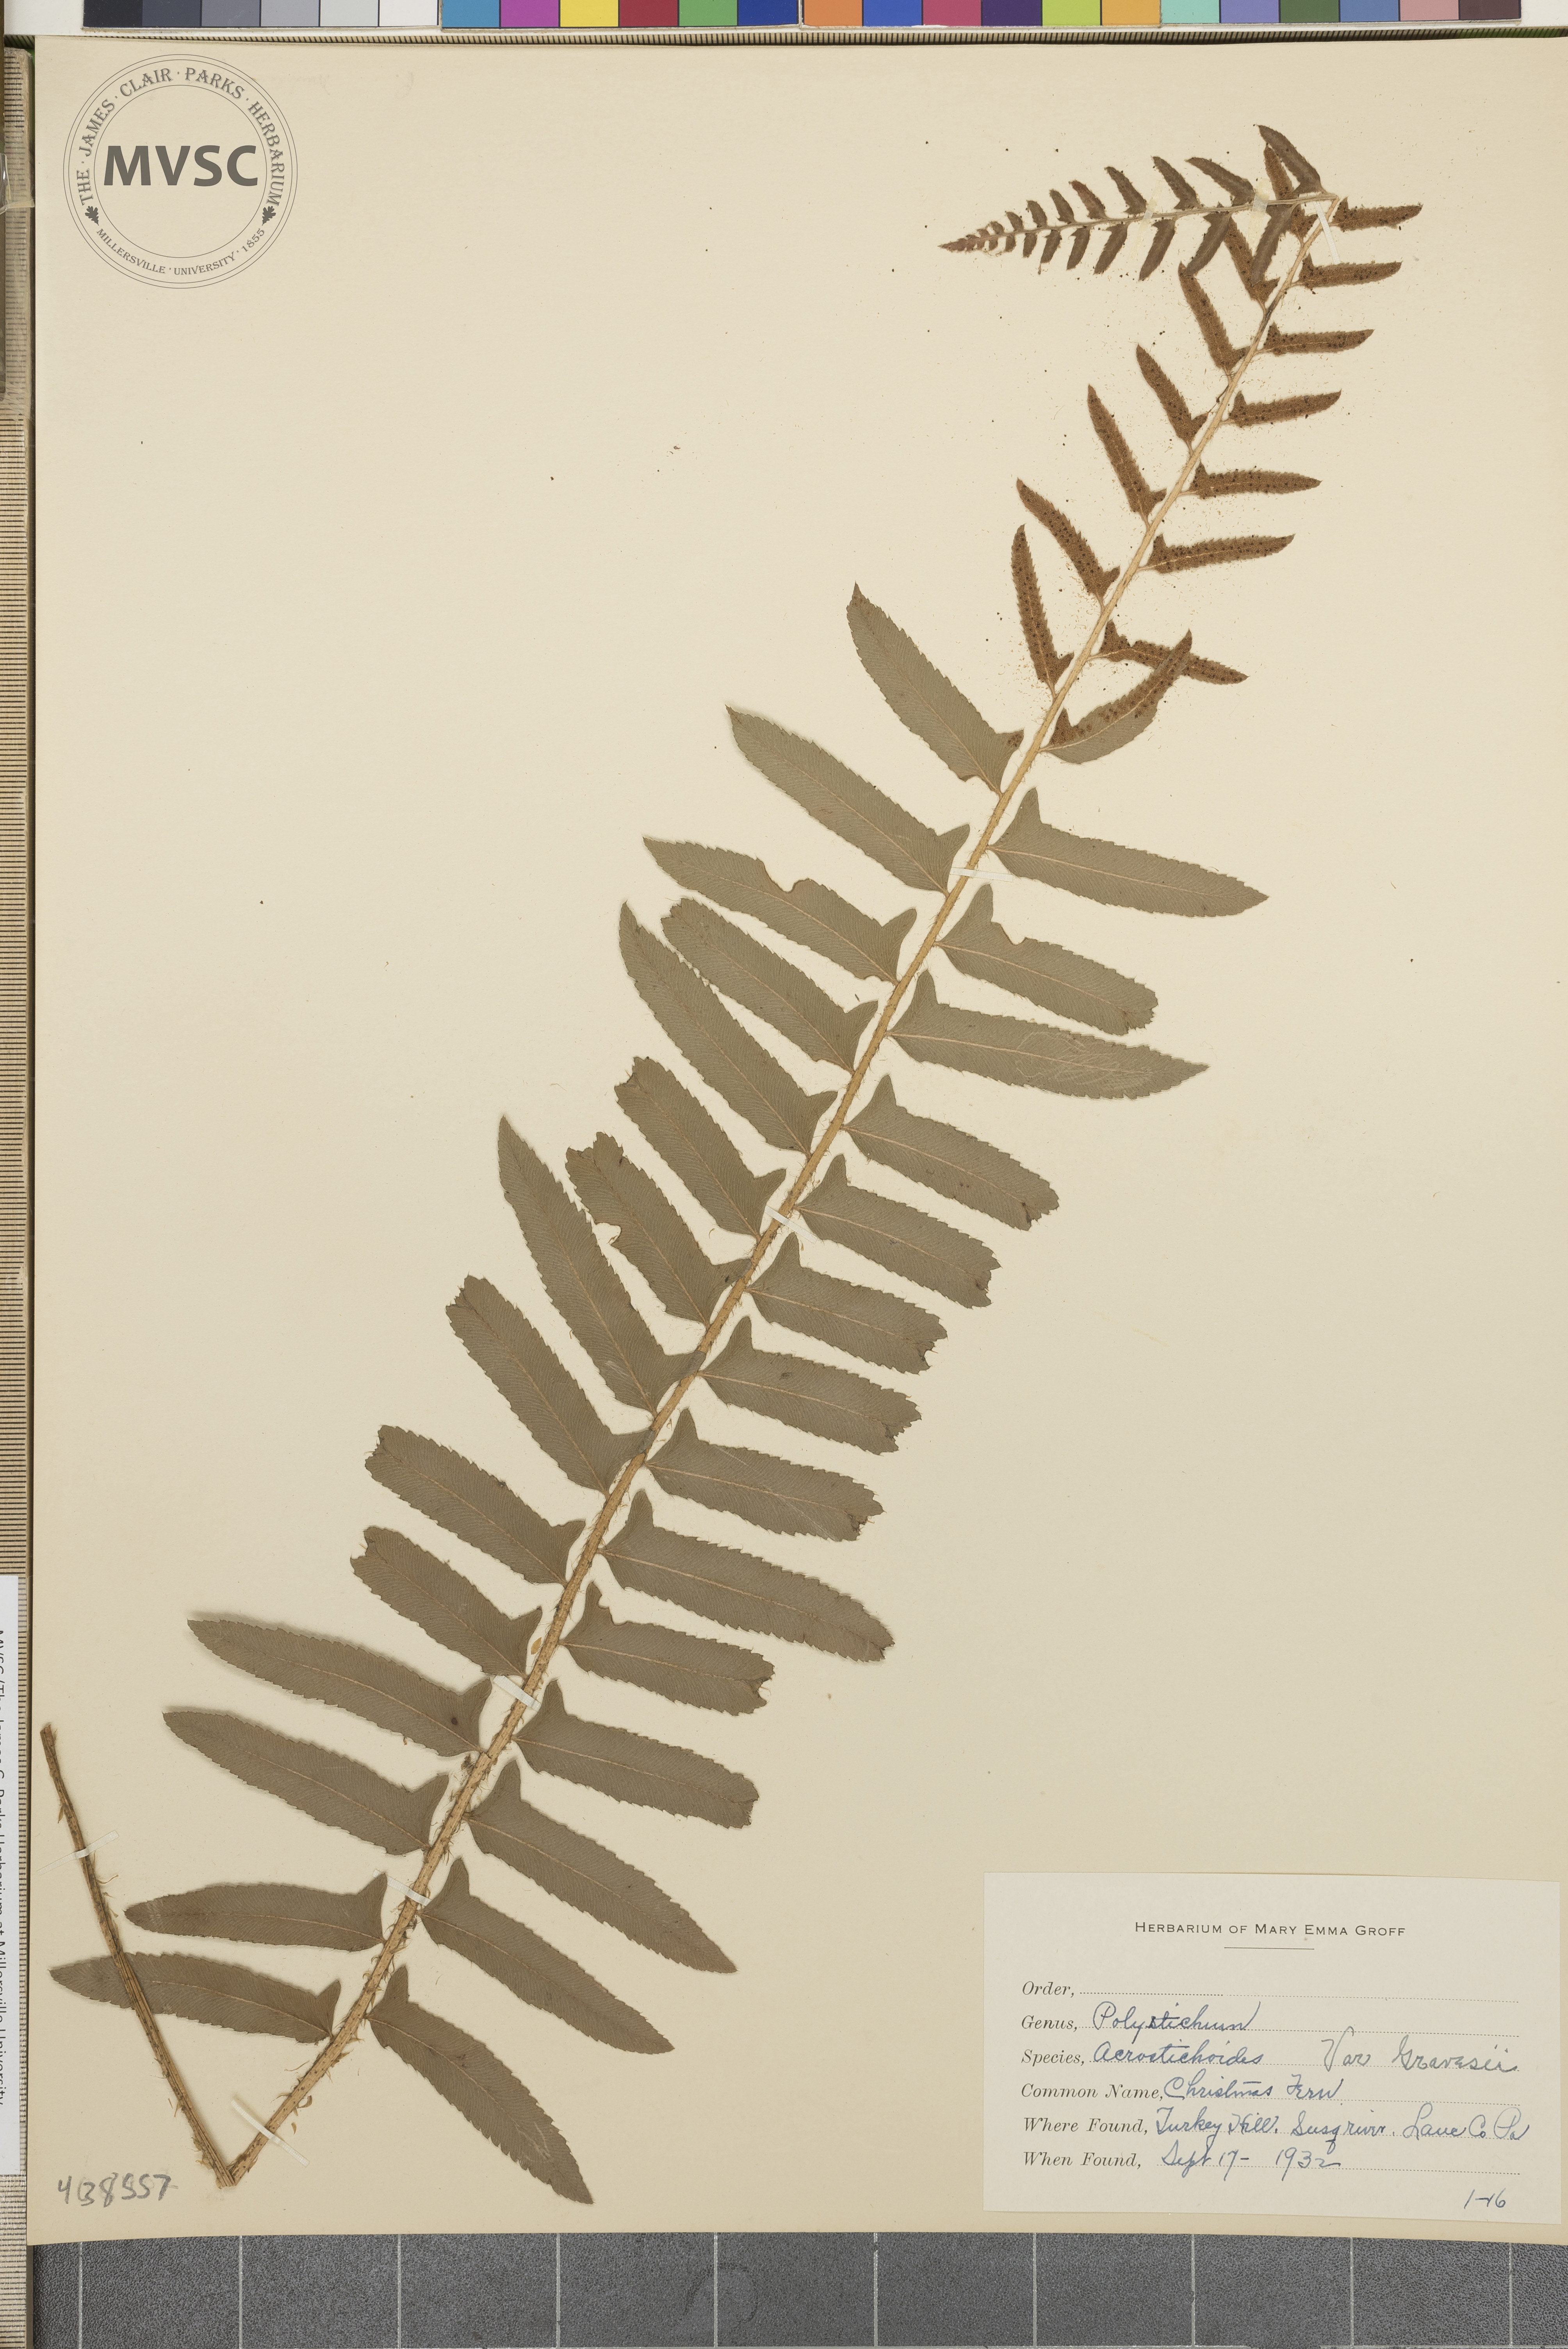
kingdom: Plantae
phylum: Tracheophyta
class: Polypodiopsida
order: Polypodiales
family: Dryopteridaceae
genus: Polystichum
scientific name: Polystichum acrostichoides
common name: Christmas fern
